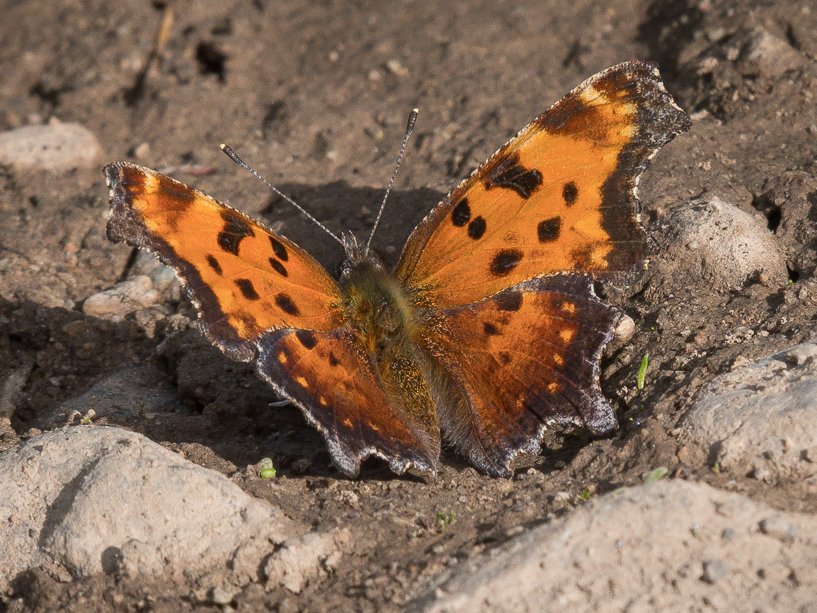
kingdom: Animalia
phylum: Arthropoda
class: Insecta
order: Lepidoptera
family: Nymphalidae
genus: Polygonia
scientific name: Polygonia progne
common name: Gray Comma
